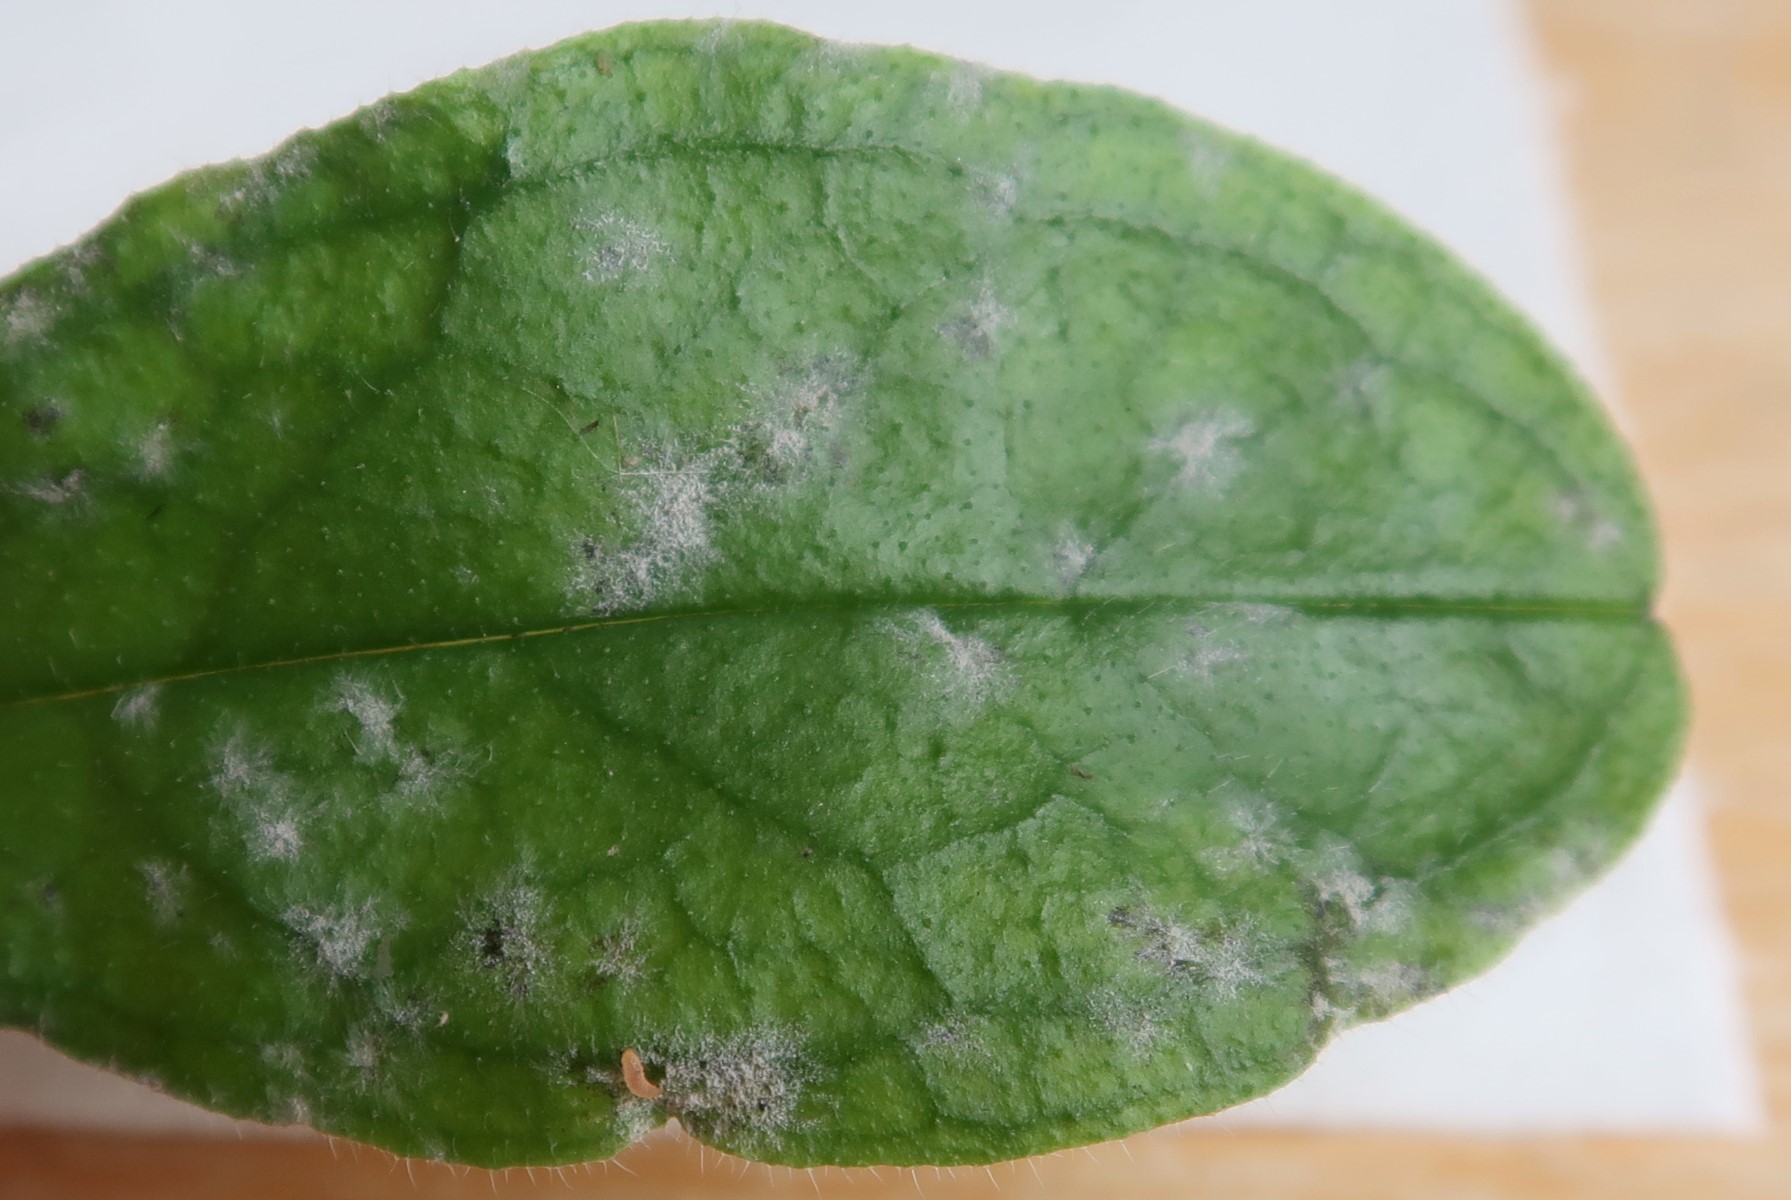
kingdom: Fungi
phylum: Ascomycota
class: Leotiomycetes
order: Helotiales
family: Erysiphaceae
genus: Golovinomyces
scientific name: Golovinomyces asperifolii
